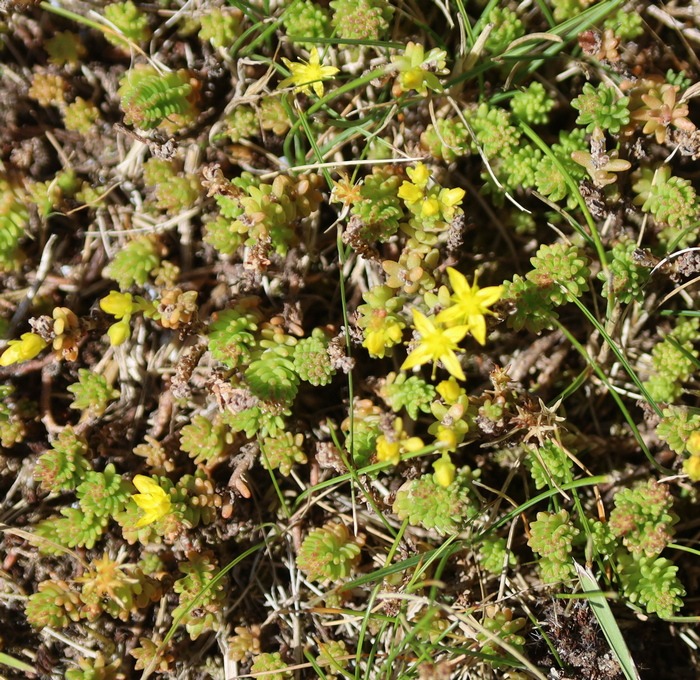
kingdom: Plantae
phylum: Tracheophyta
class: Magnoliopsida
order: Saxifragales
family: Crassulaceae
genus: Sedum
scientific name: Sedum sexangulare
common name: Seksradet stenurt
